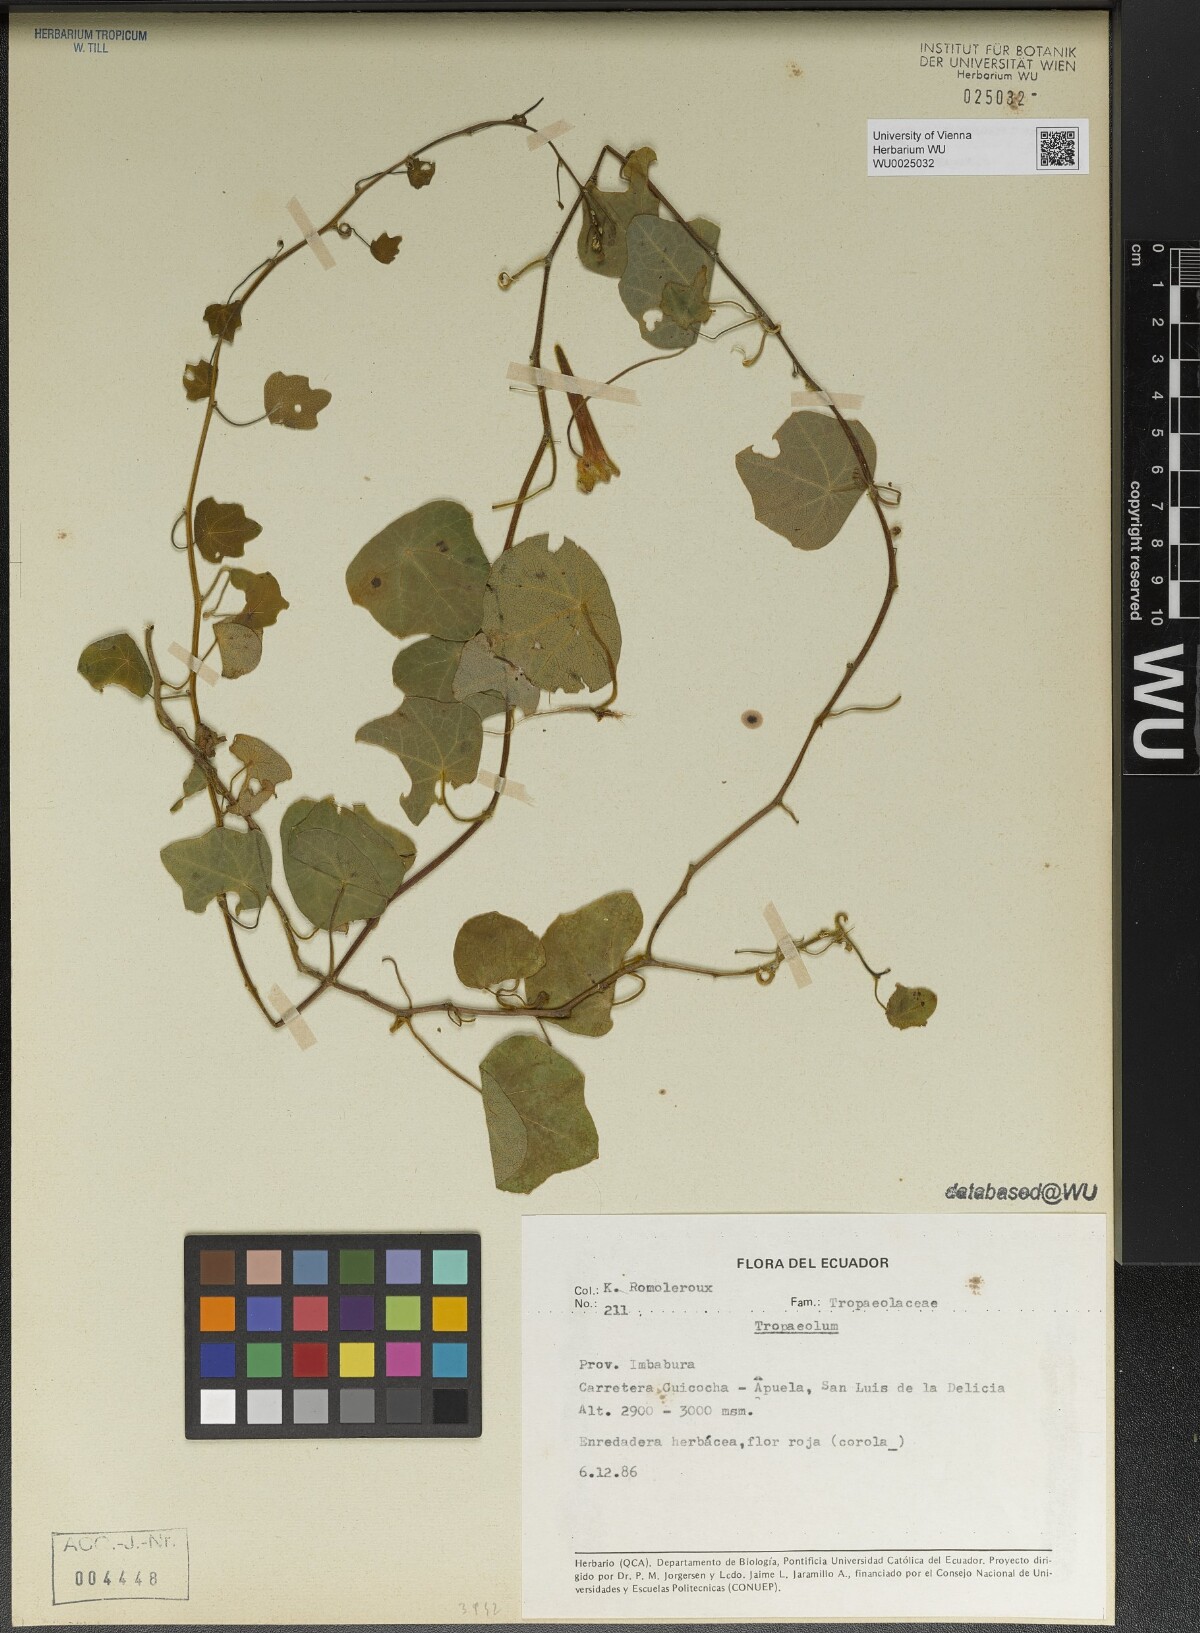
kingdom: Plantae
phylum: Tracheophyta
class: Magnoliopsida
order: Brassicales
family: Tropaeolaceae
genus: Tropaeolum
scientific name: Tropaeolum
